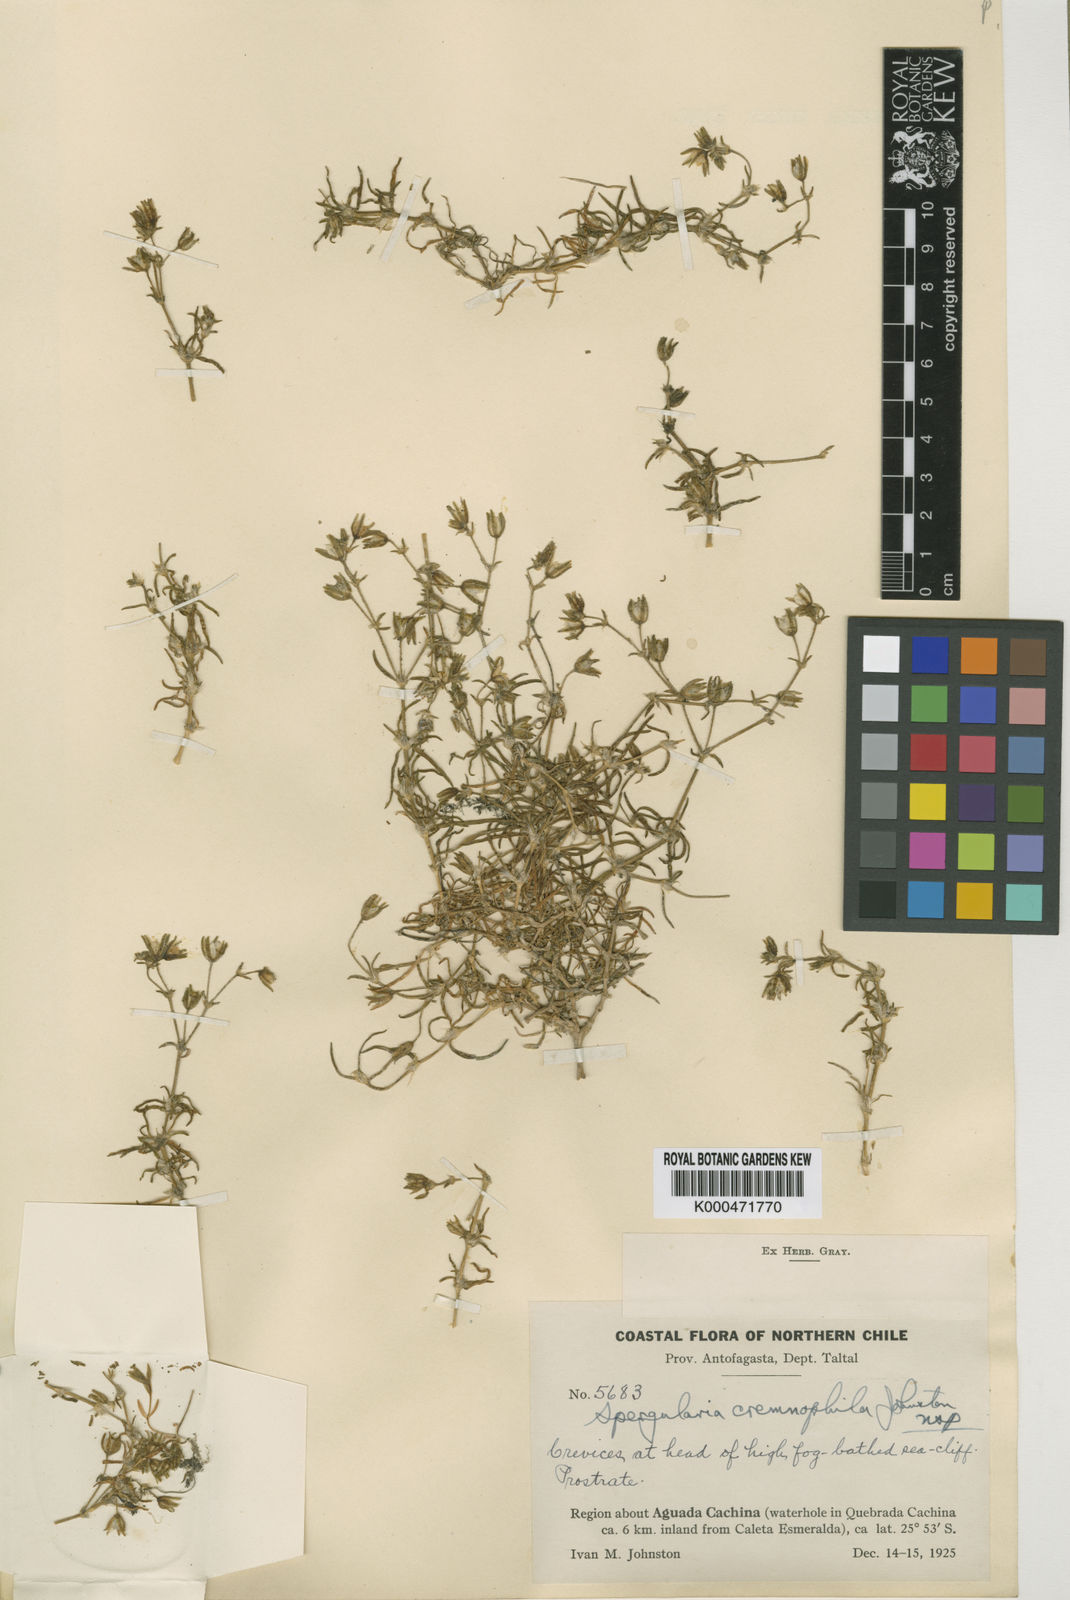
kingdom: Plantae
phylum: Tracheophyta
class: Magnoliopsida
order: Caryophyllales
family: Caryophyllaceae
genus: Spergularia
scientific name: Spergularia cremnophila
